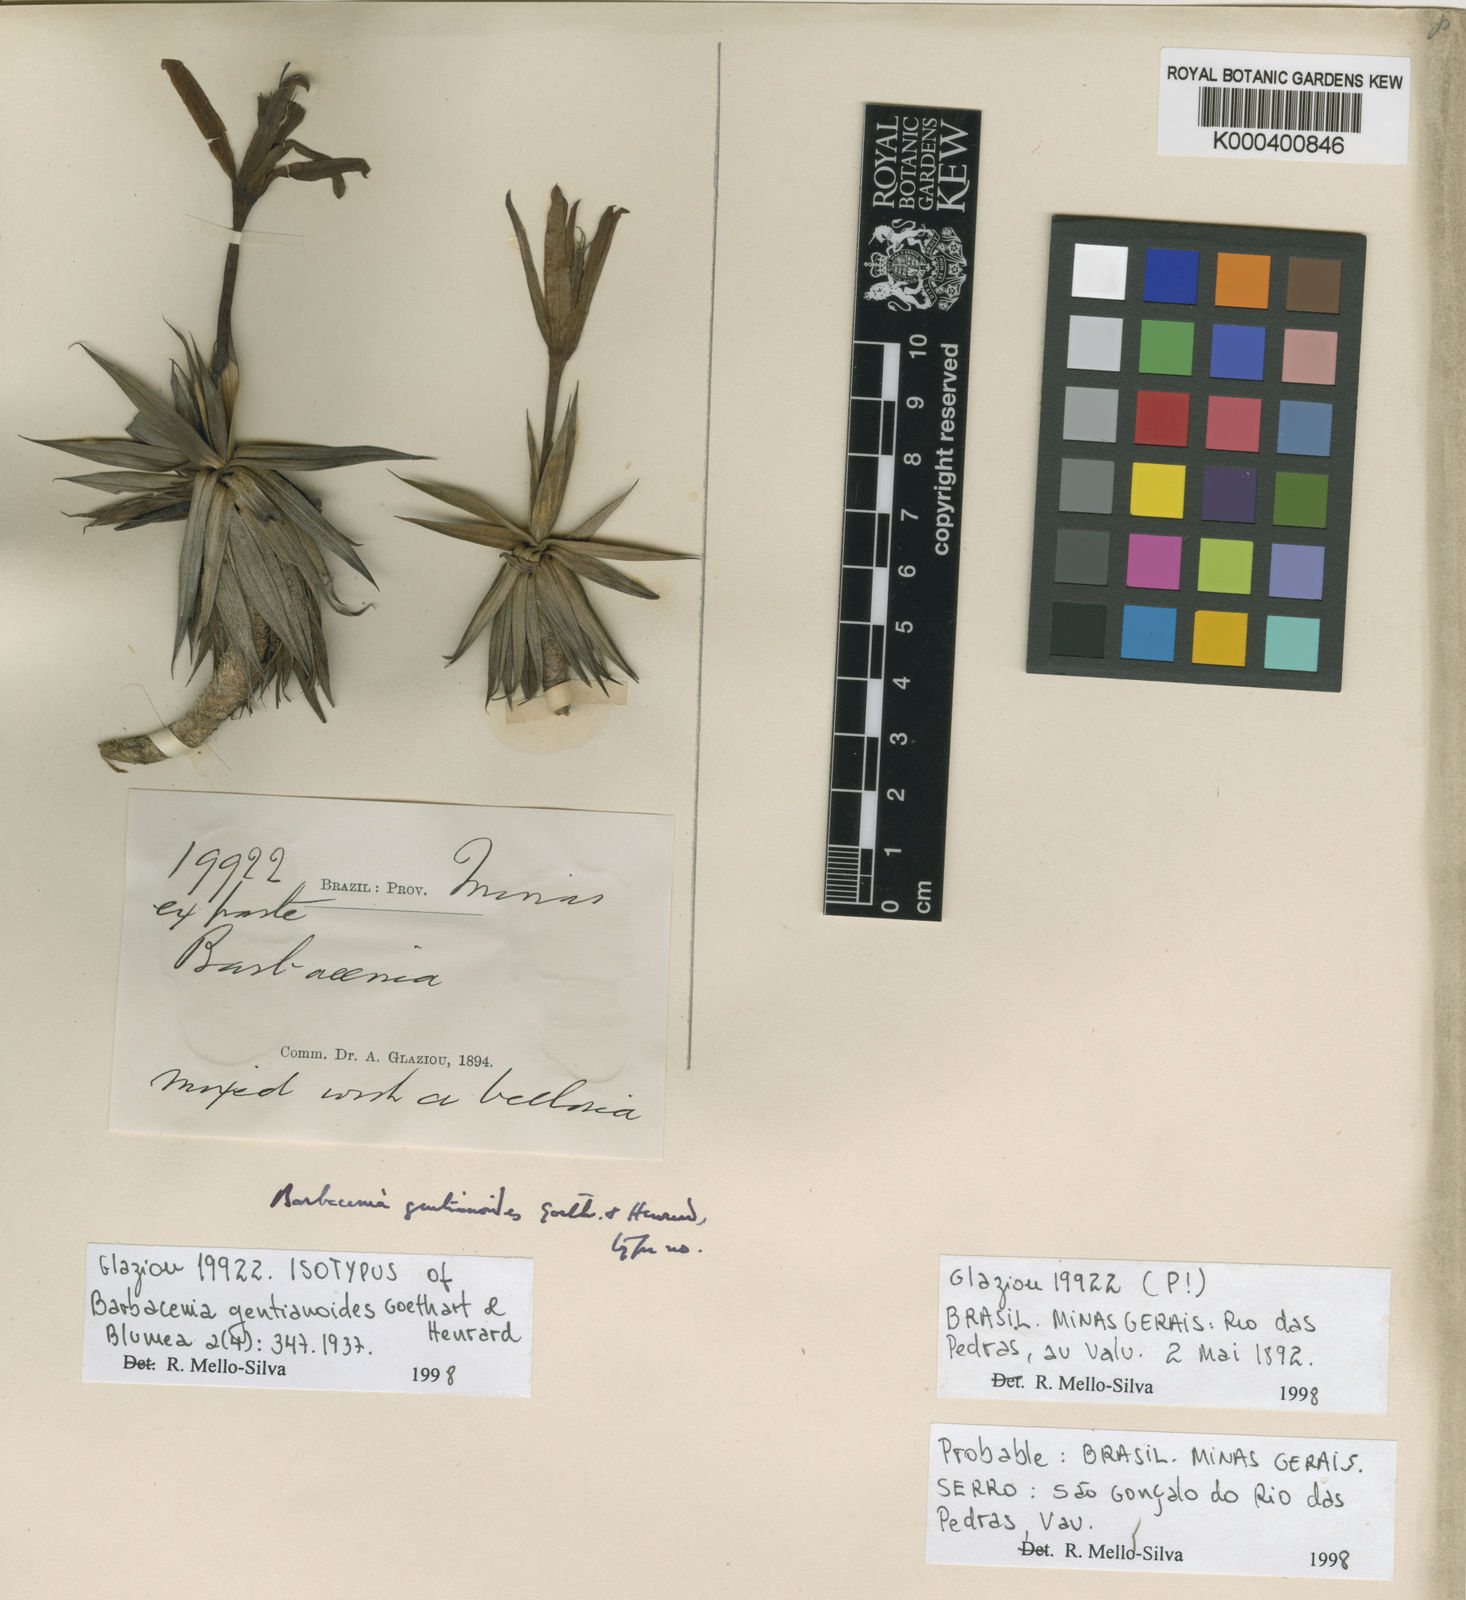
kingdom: Plantae
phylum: Tracheophyta
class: Liliopsida
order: Pandanales
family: Velloziaceae
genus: Barbacenia
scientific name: Barbacenia gentianoides
